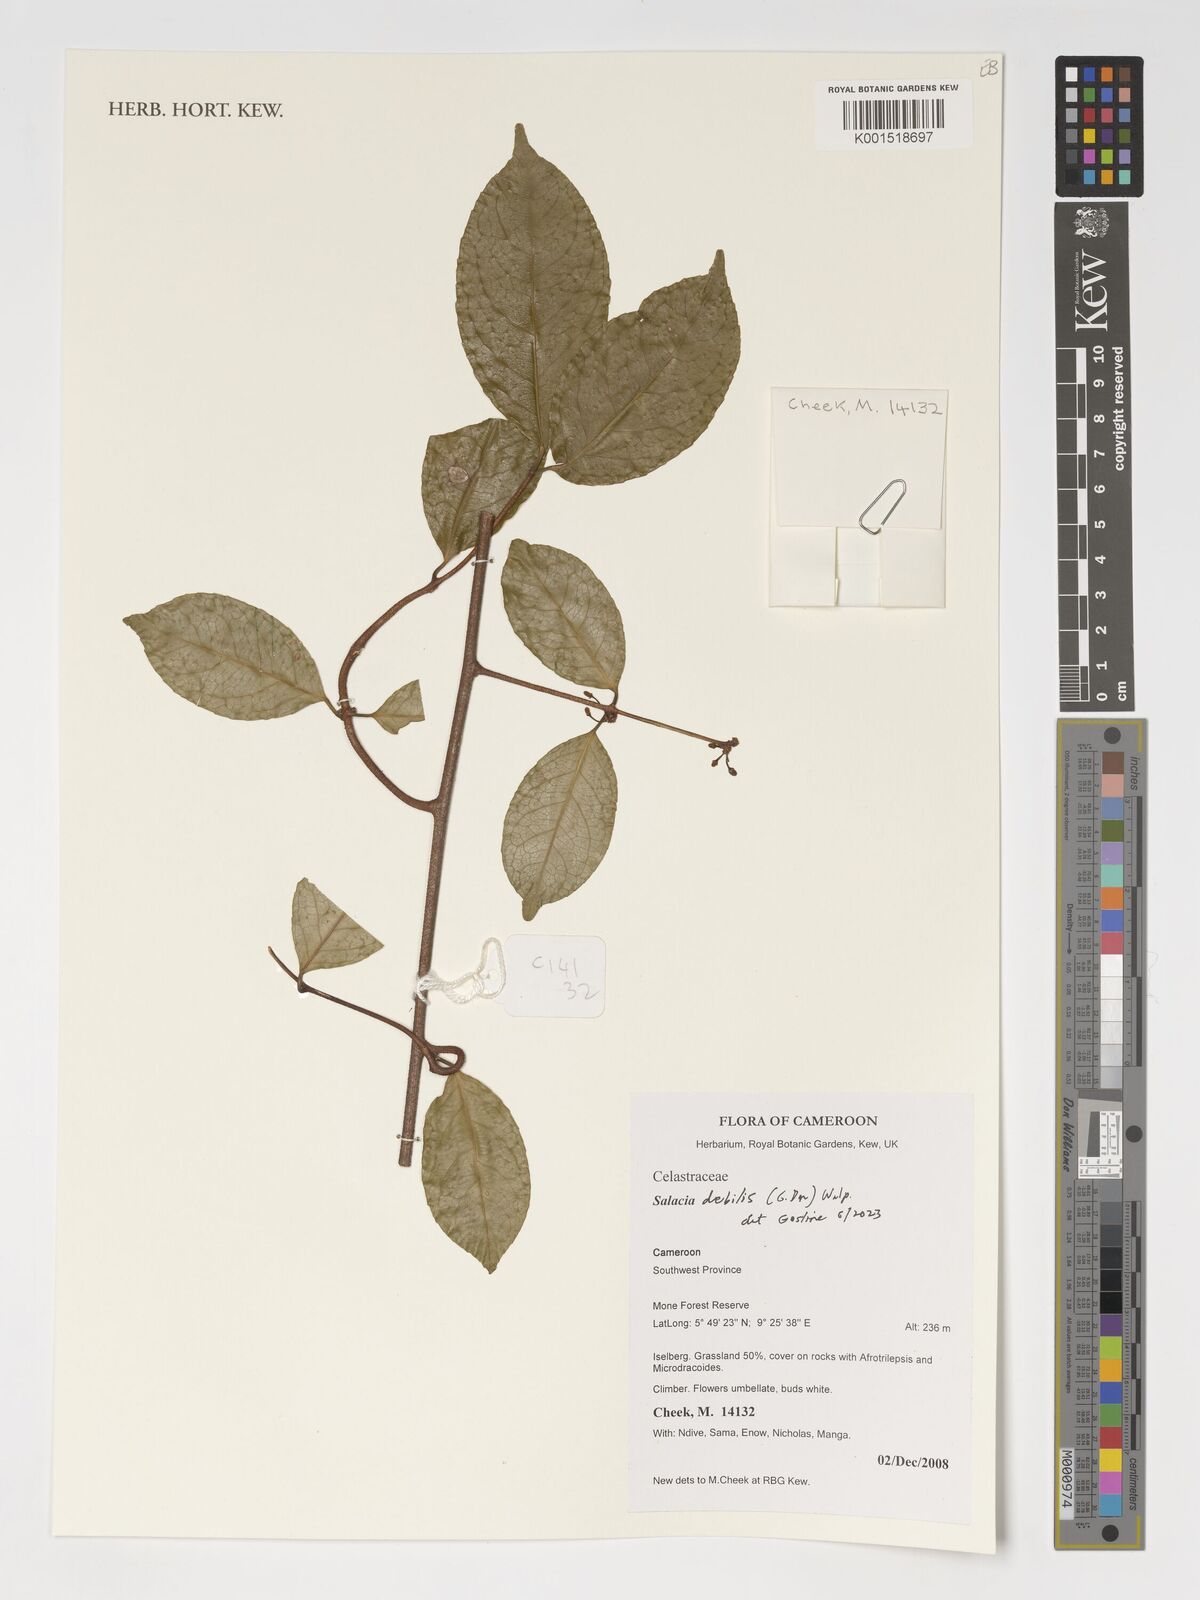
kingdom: Plantae
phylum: Tracheophyta
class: Magnoliopsida
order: Celastrales
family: Celastraceae
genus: Salacia
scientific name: Salacia debilis
